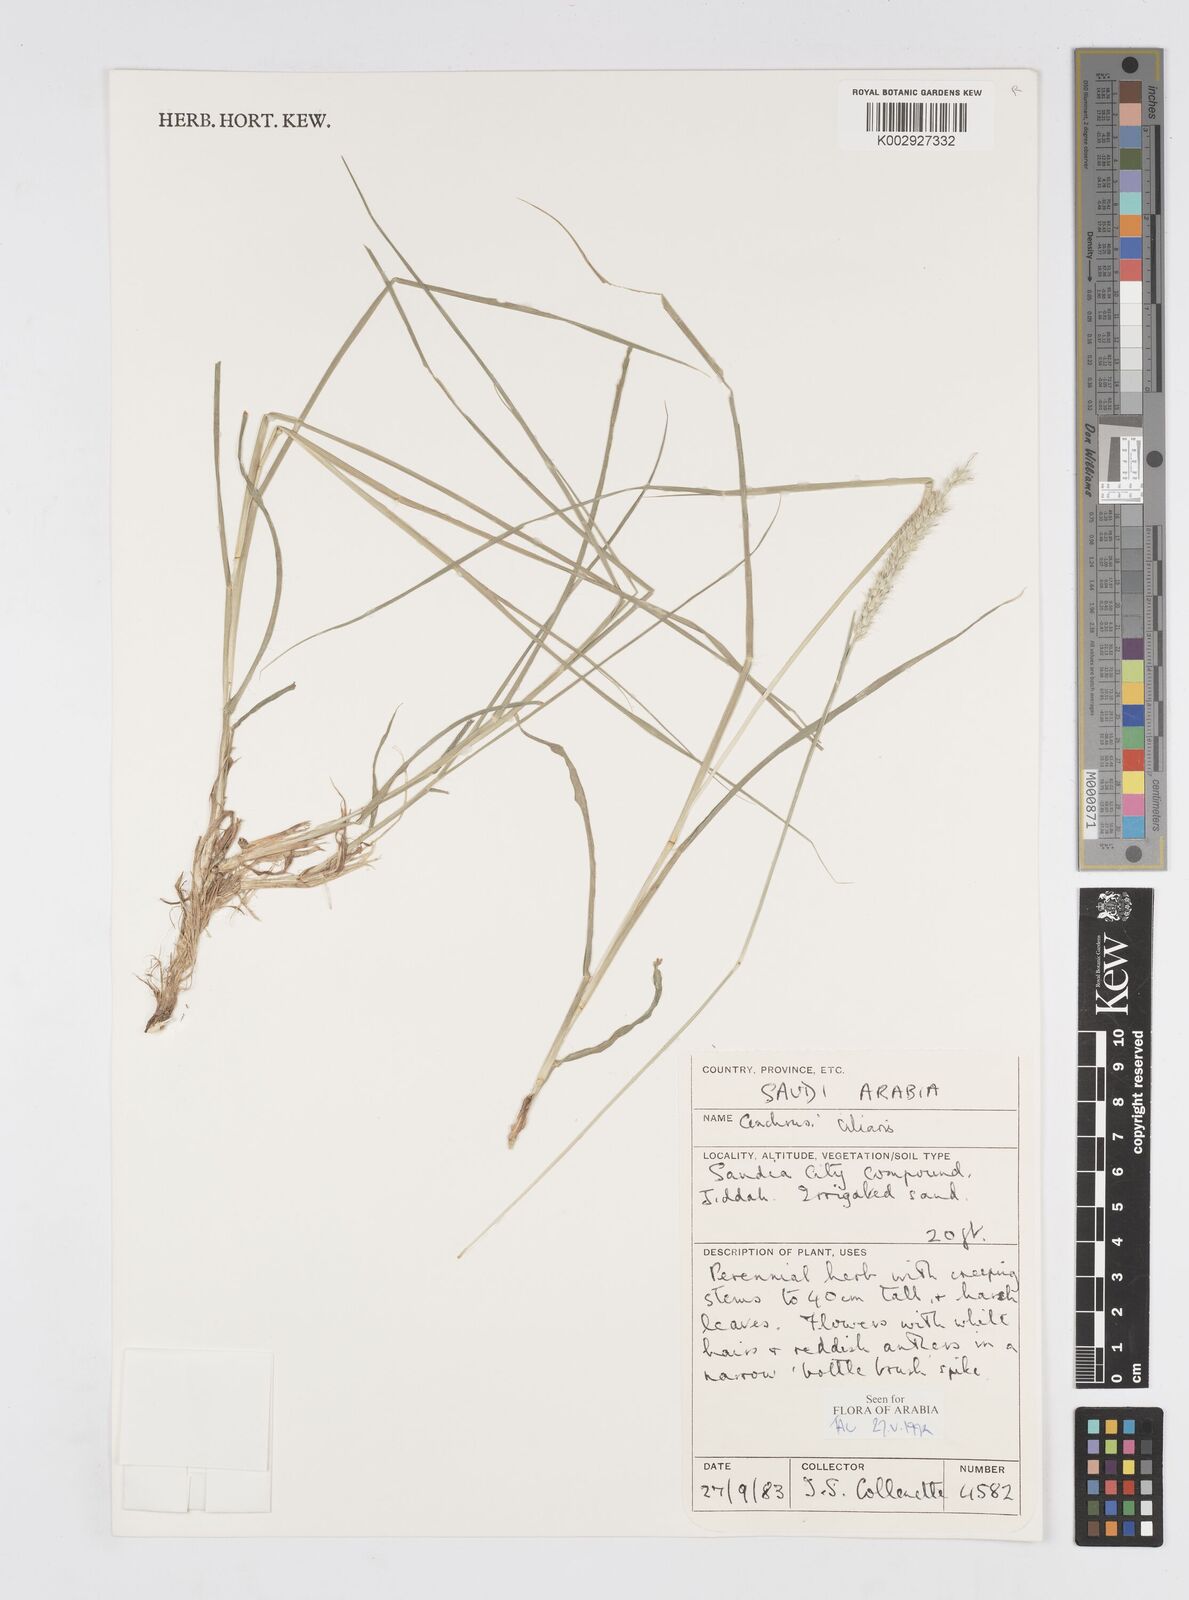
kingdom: Plantae
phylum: Tracheophyta
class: Liliopsida
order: Poales
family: Poaceae
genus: Cenchrus
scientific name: Cenchrus ciliaris
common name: Buffelgrass
